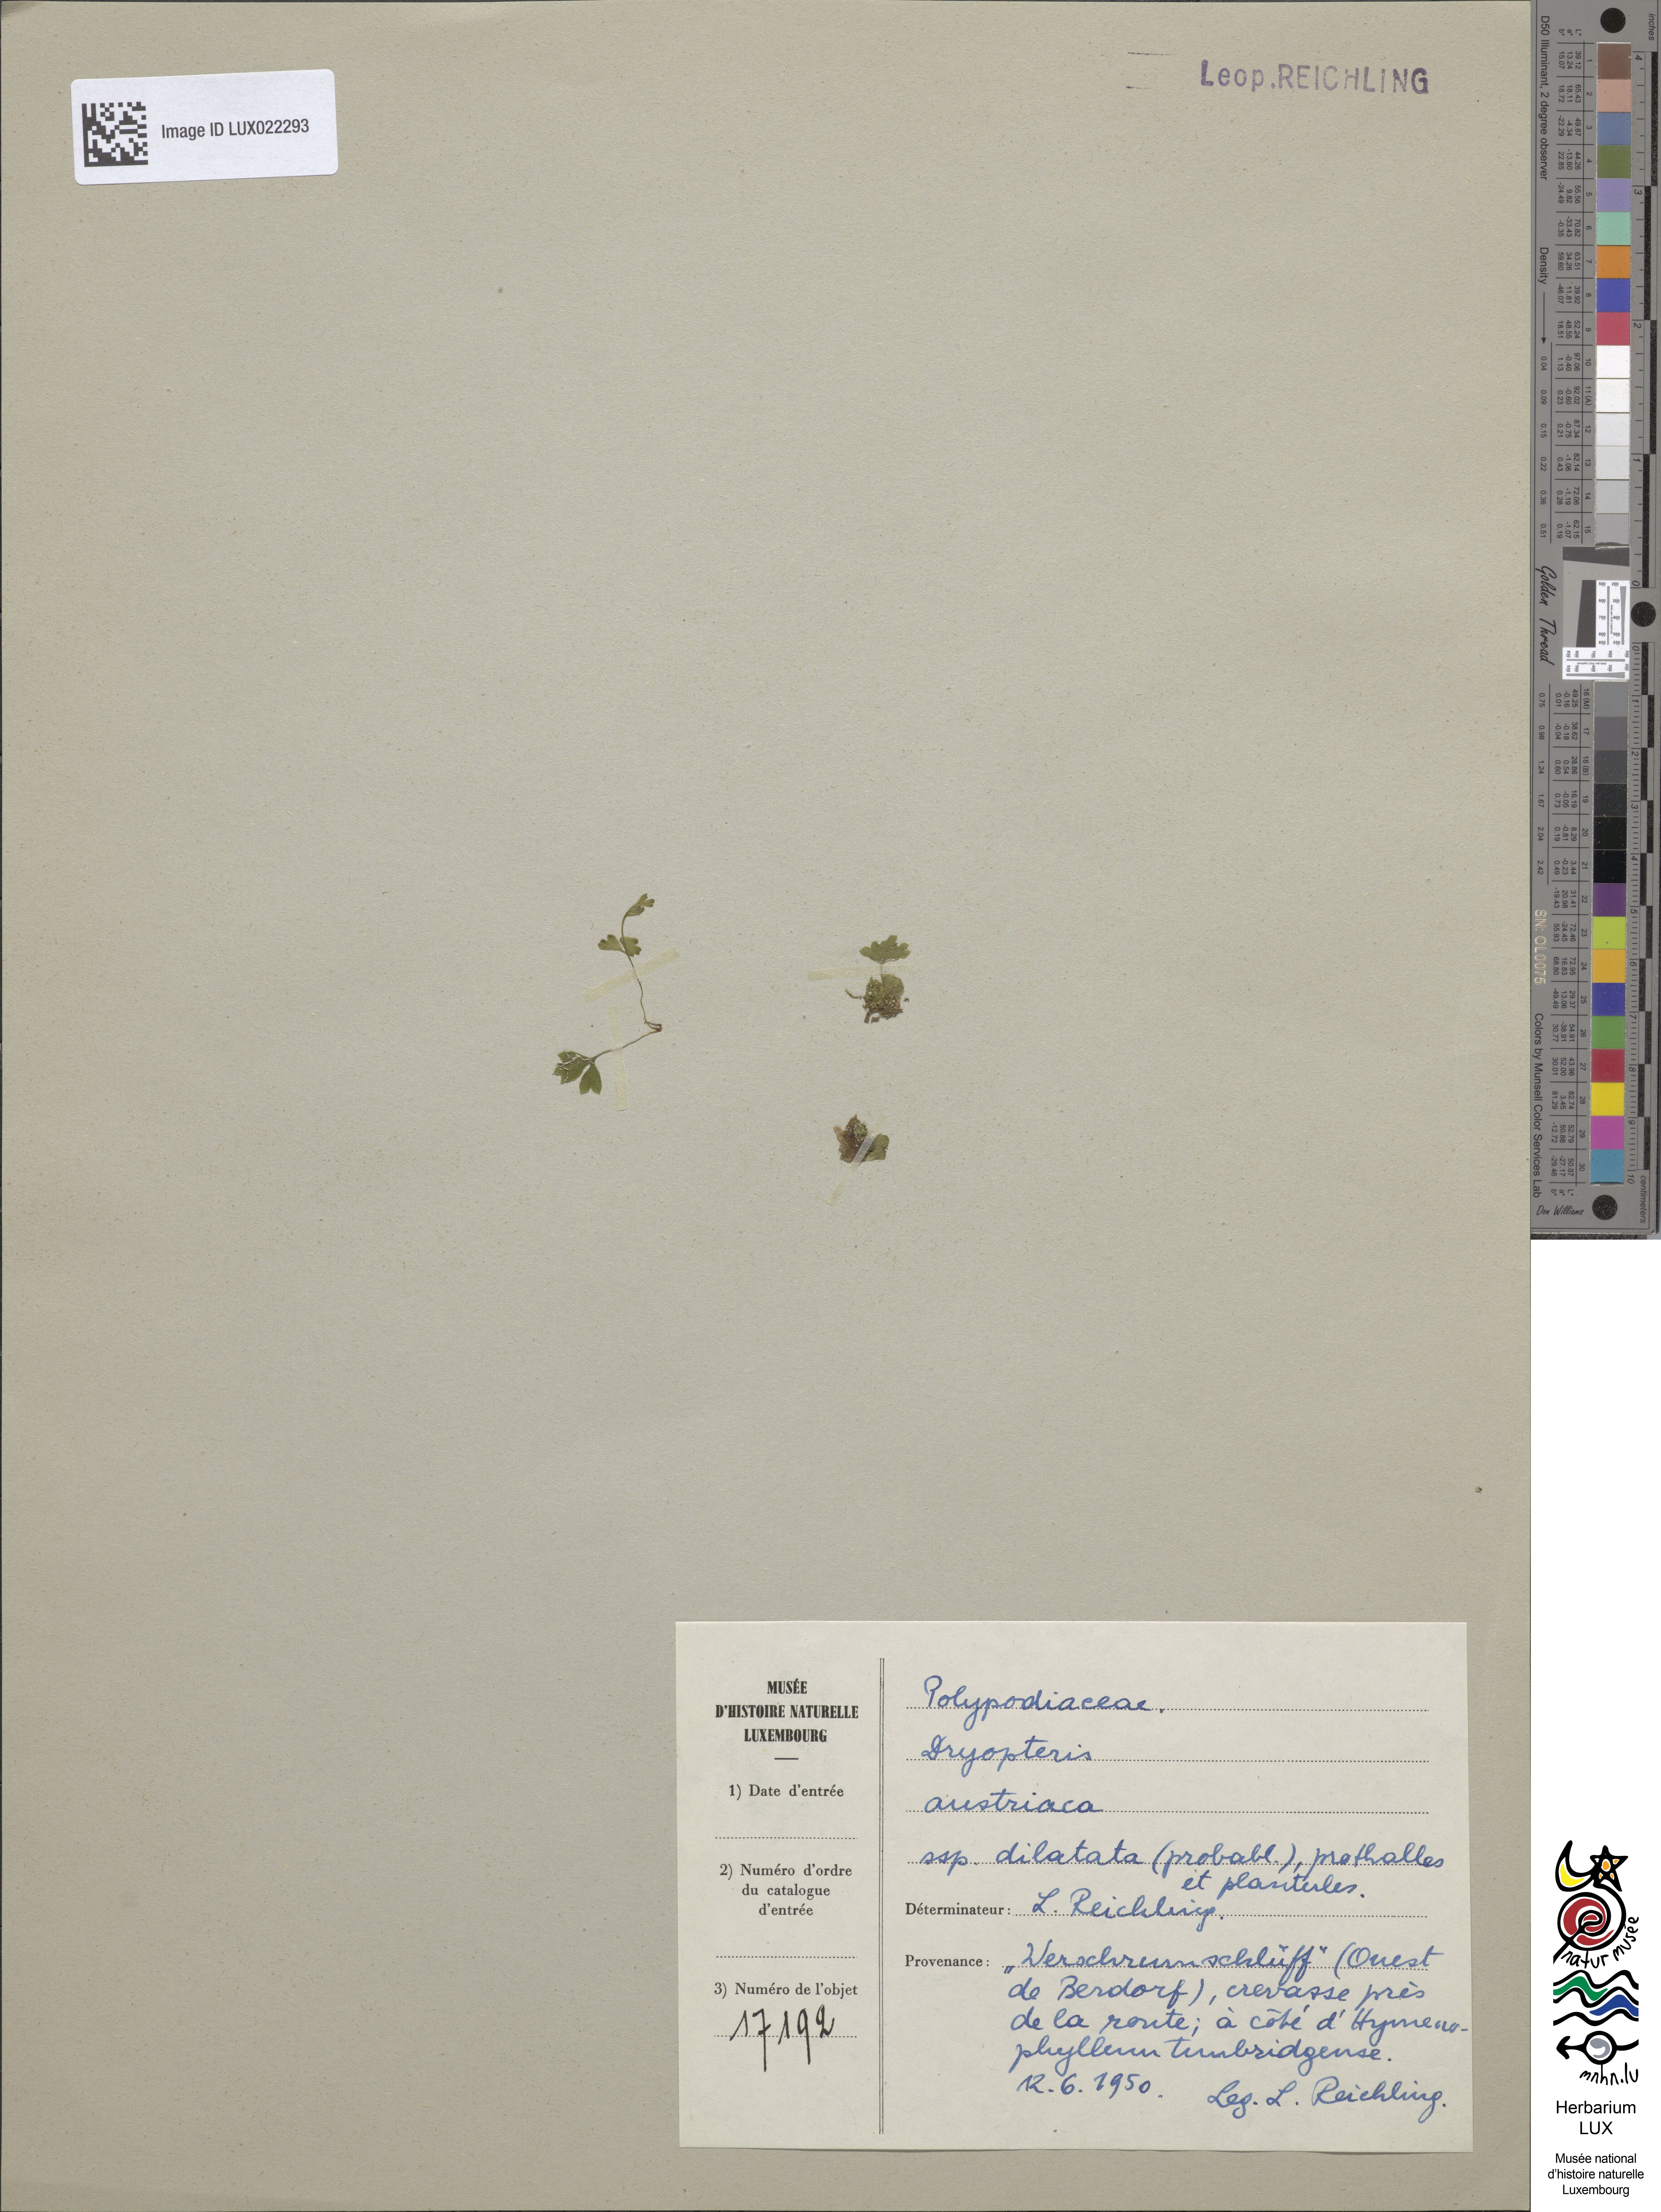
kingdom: Plantae
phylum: Tracheophyta
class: Polypodiopsida
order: Polypodiales
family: Dryopteridaceae
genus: Dryopteris
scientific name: Dryopteris dilatata
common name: Broad buckler-fern
